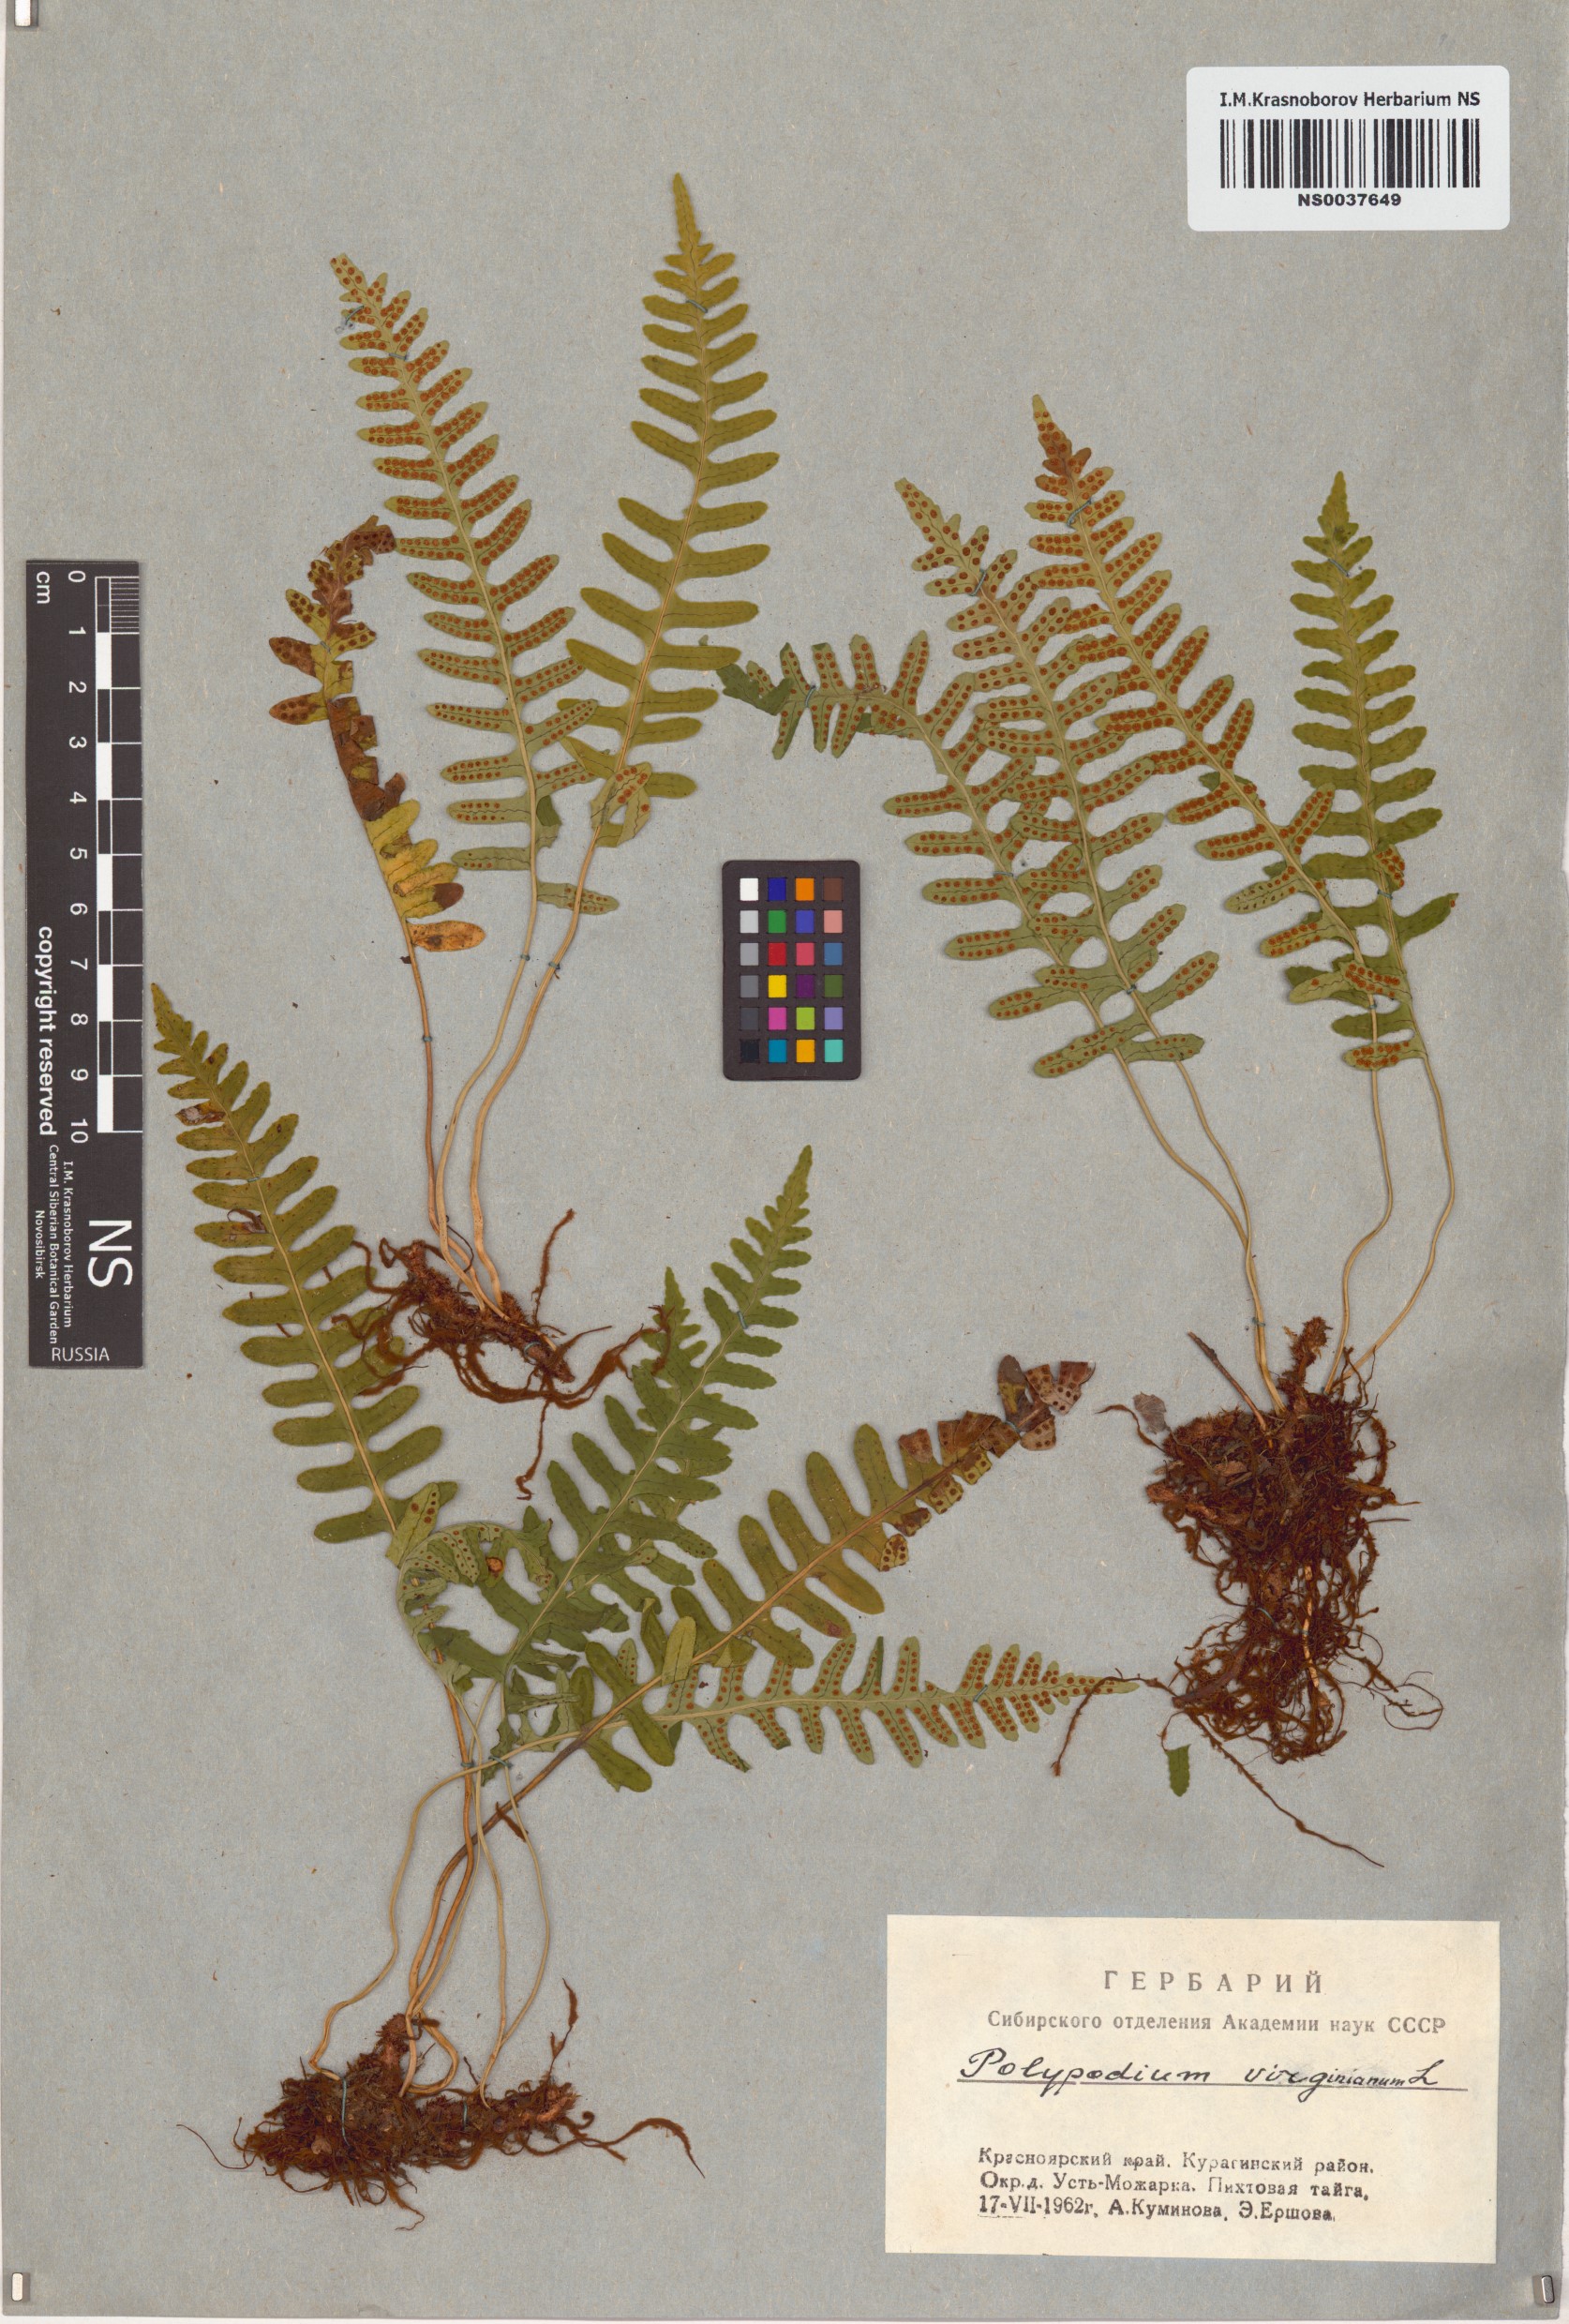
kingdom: Plantae
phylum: Tracheophyta
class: Polypodiopsida
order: Polypodiales
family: Polypodiaceae
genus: Polypodium
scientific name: Polypodium virginianum
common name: American wall fern
